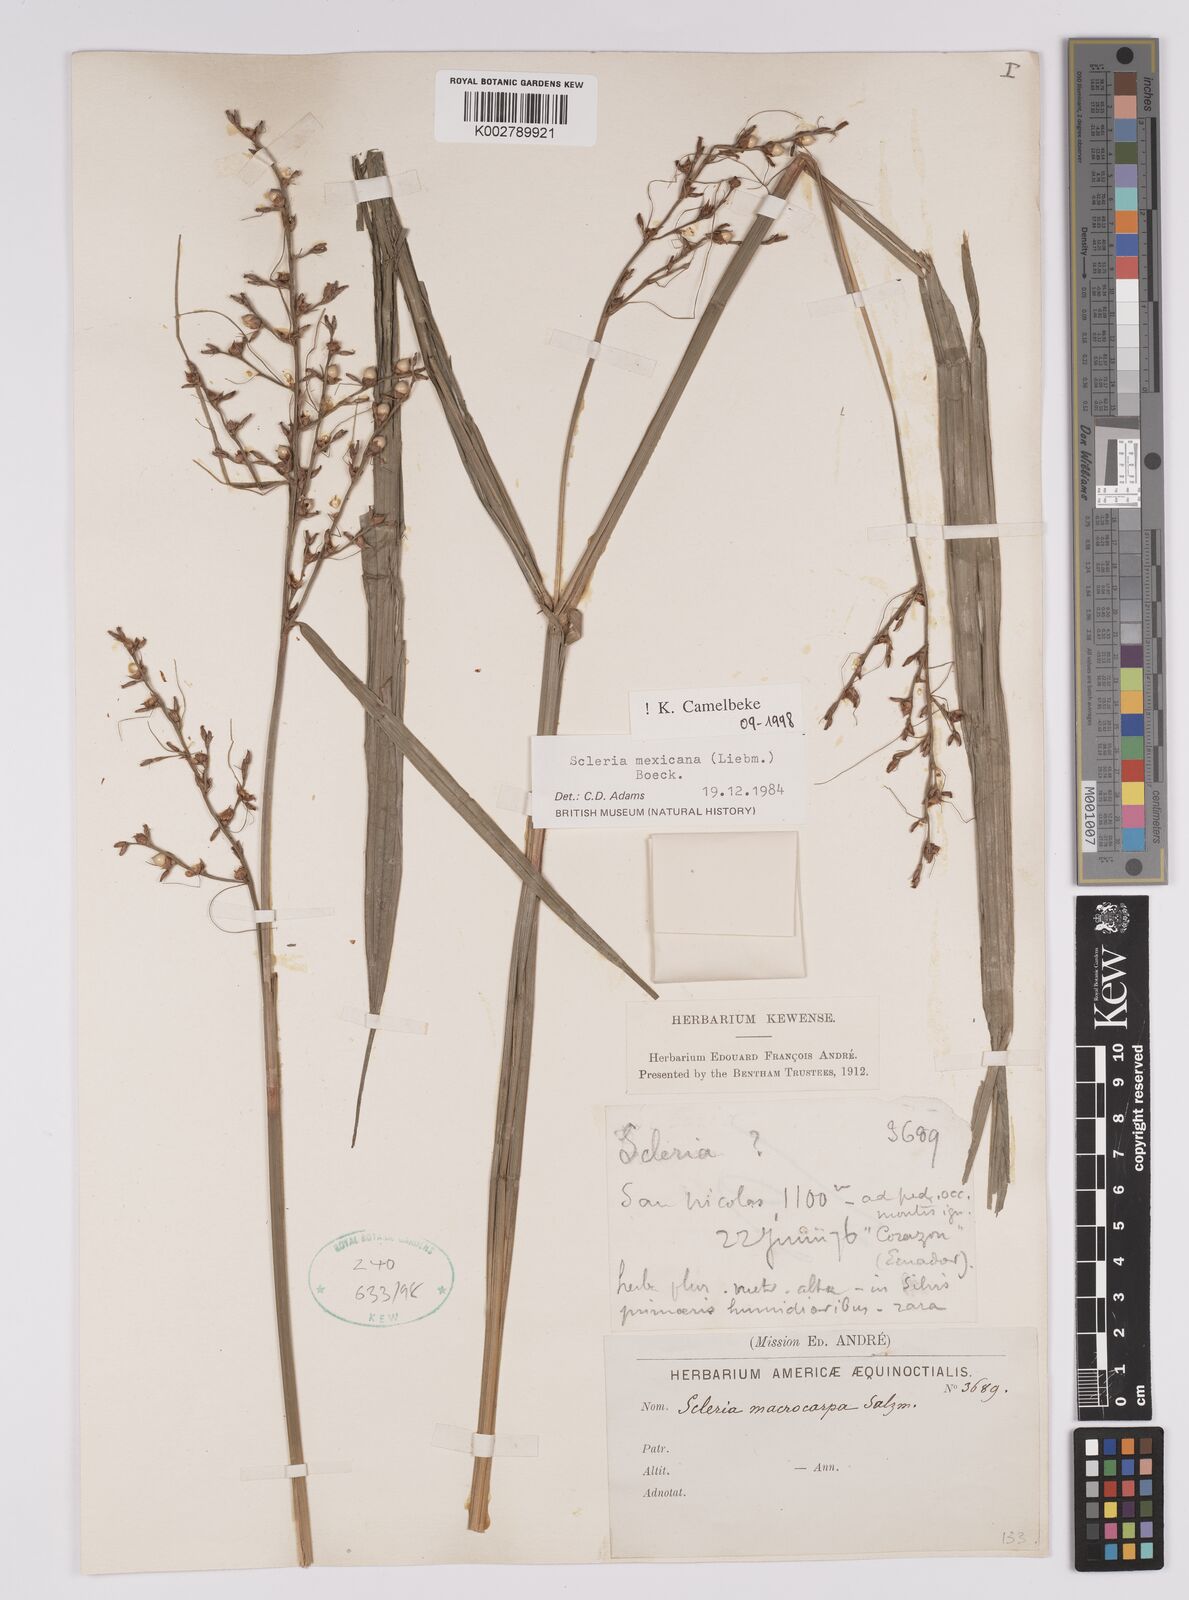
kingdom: Plantae
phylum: Tracheophyta
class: Liliopsida
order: Poales
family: Cyperaceae
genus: Scleria
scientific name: Scleria sororia
